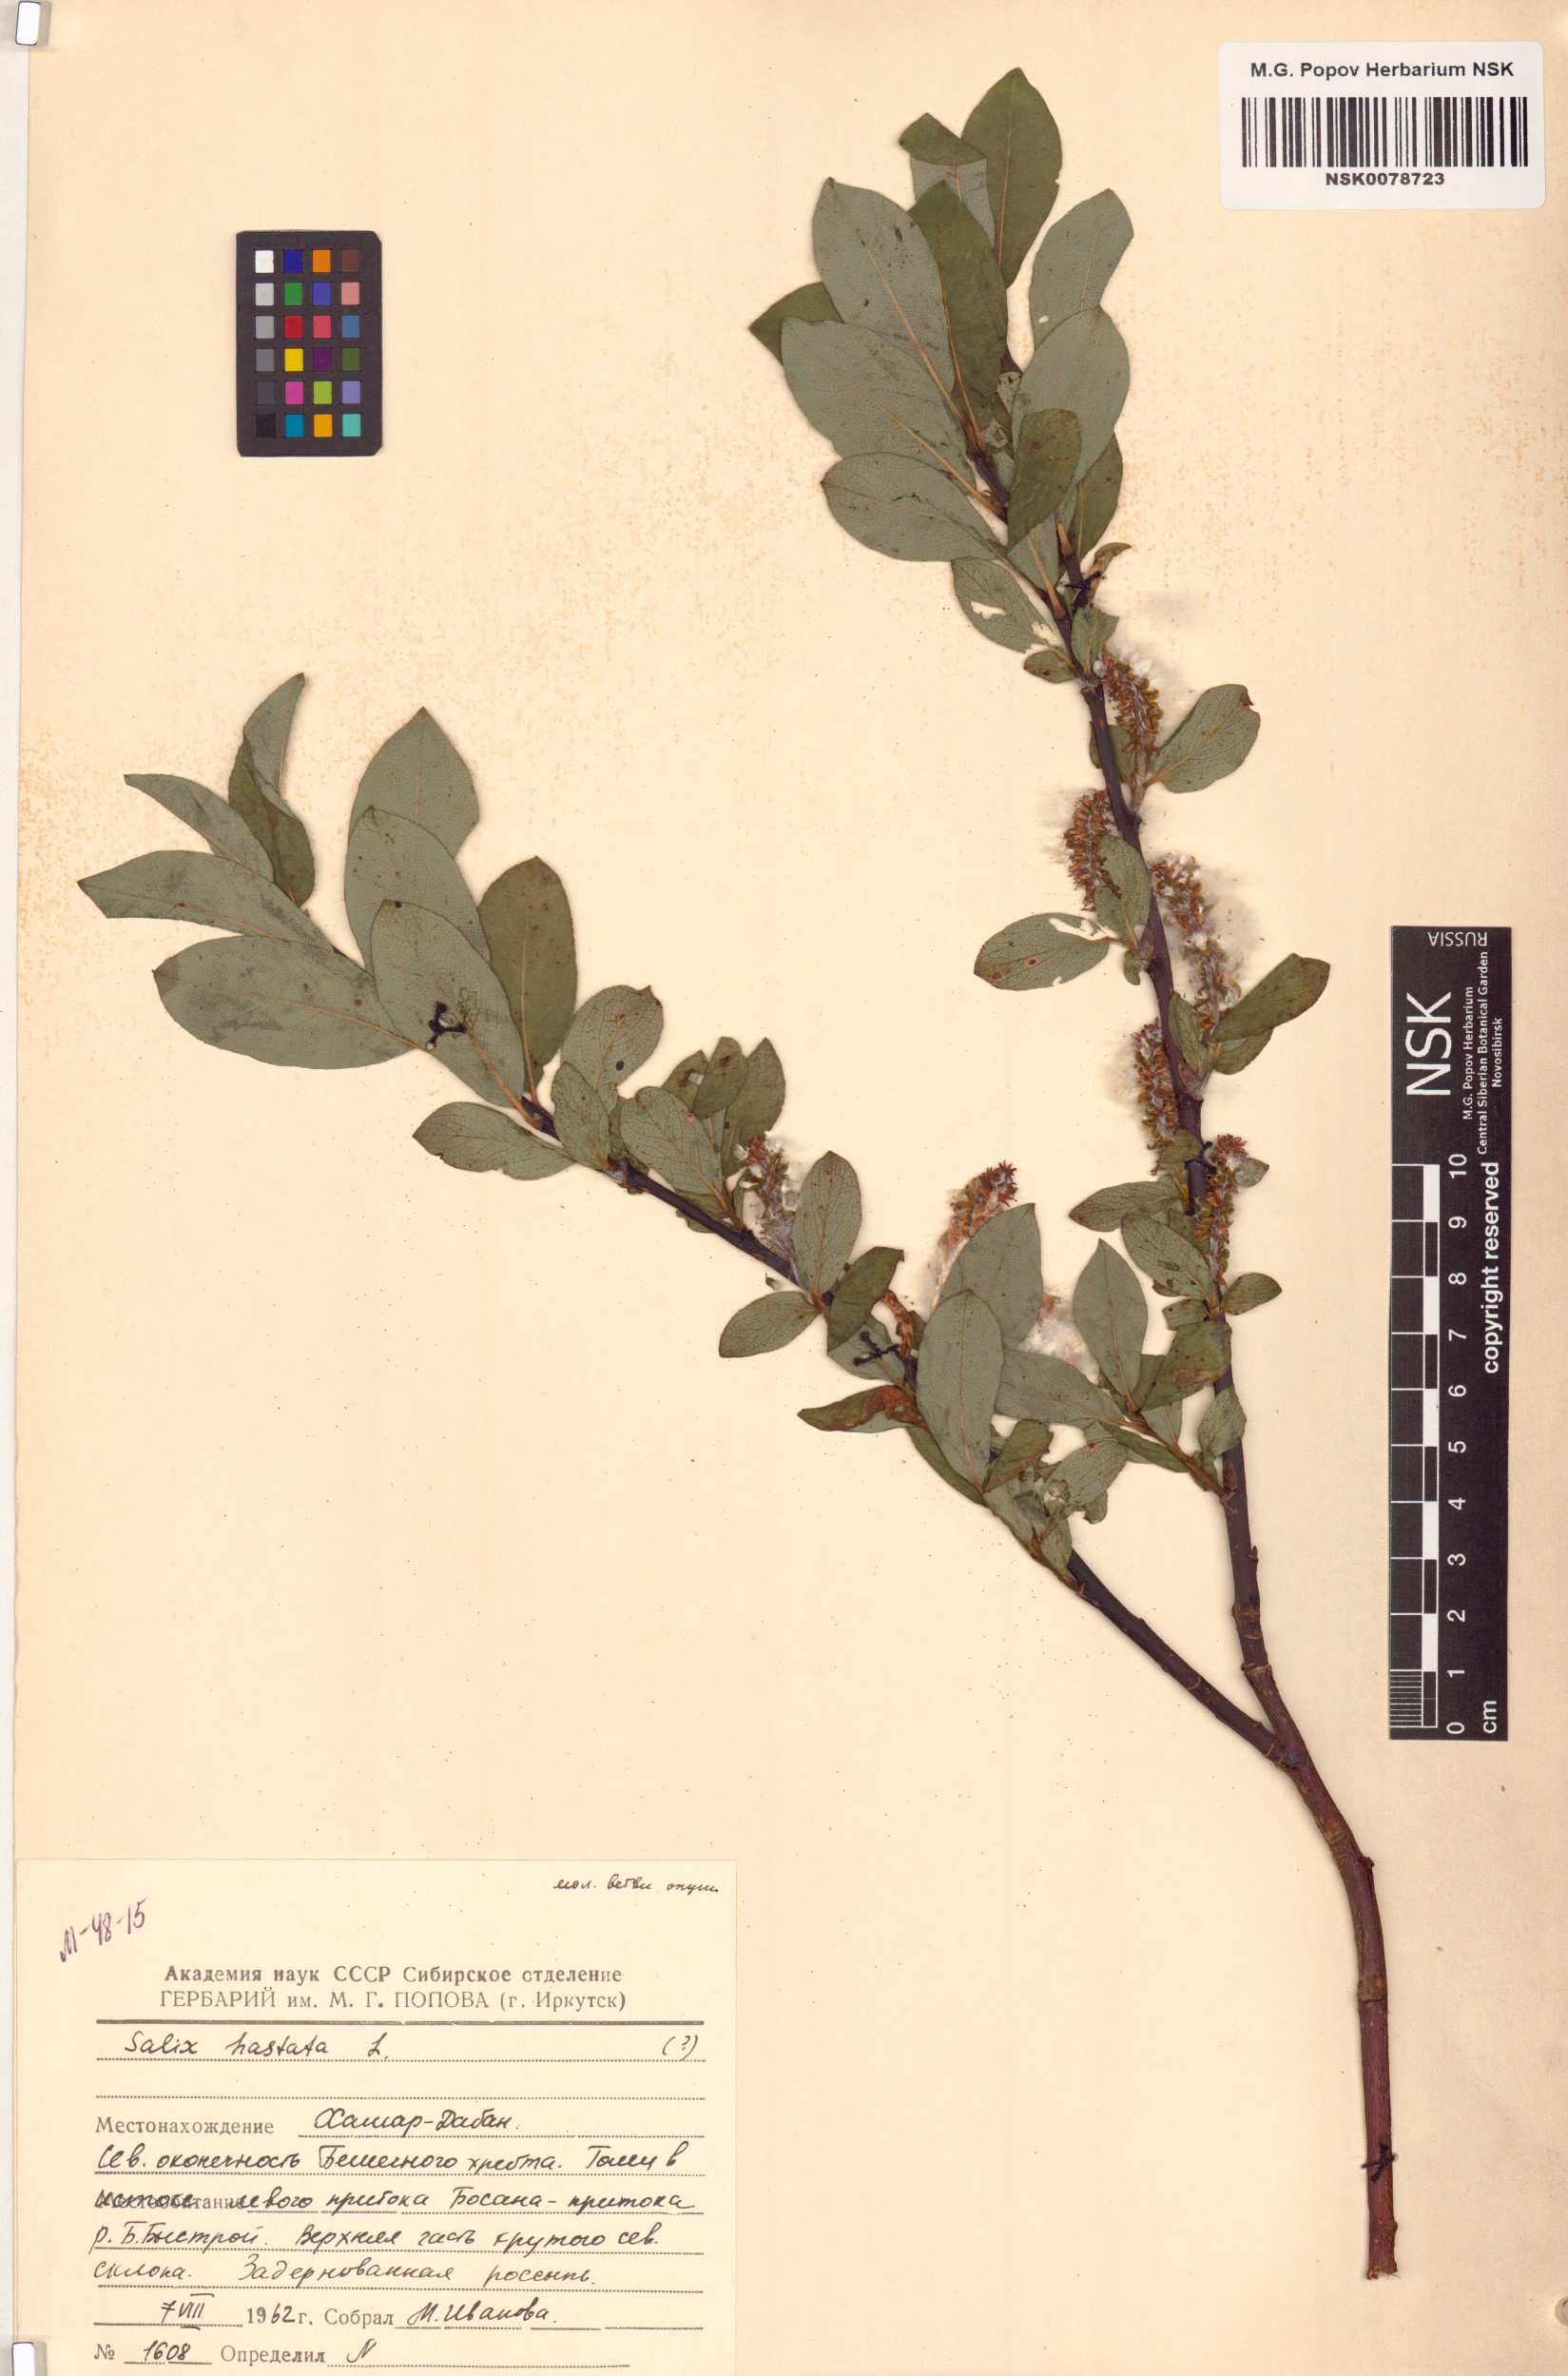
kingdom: Plantae
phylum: Tracheophyta
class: Magnoliopsida
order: Malpighiales
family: Salicaceae
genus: Salix
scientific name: Salix hastata
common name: Halberd willow
